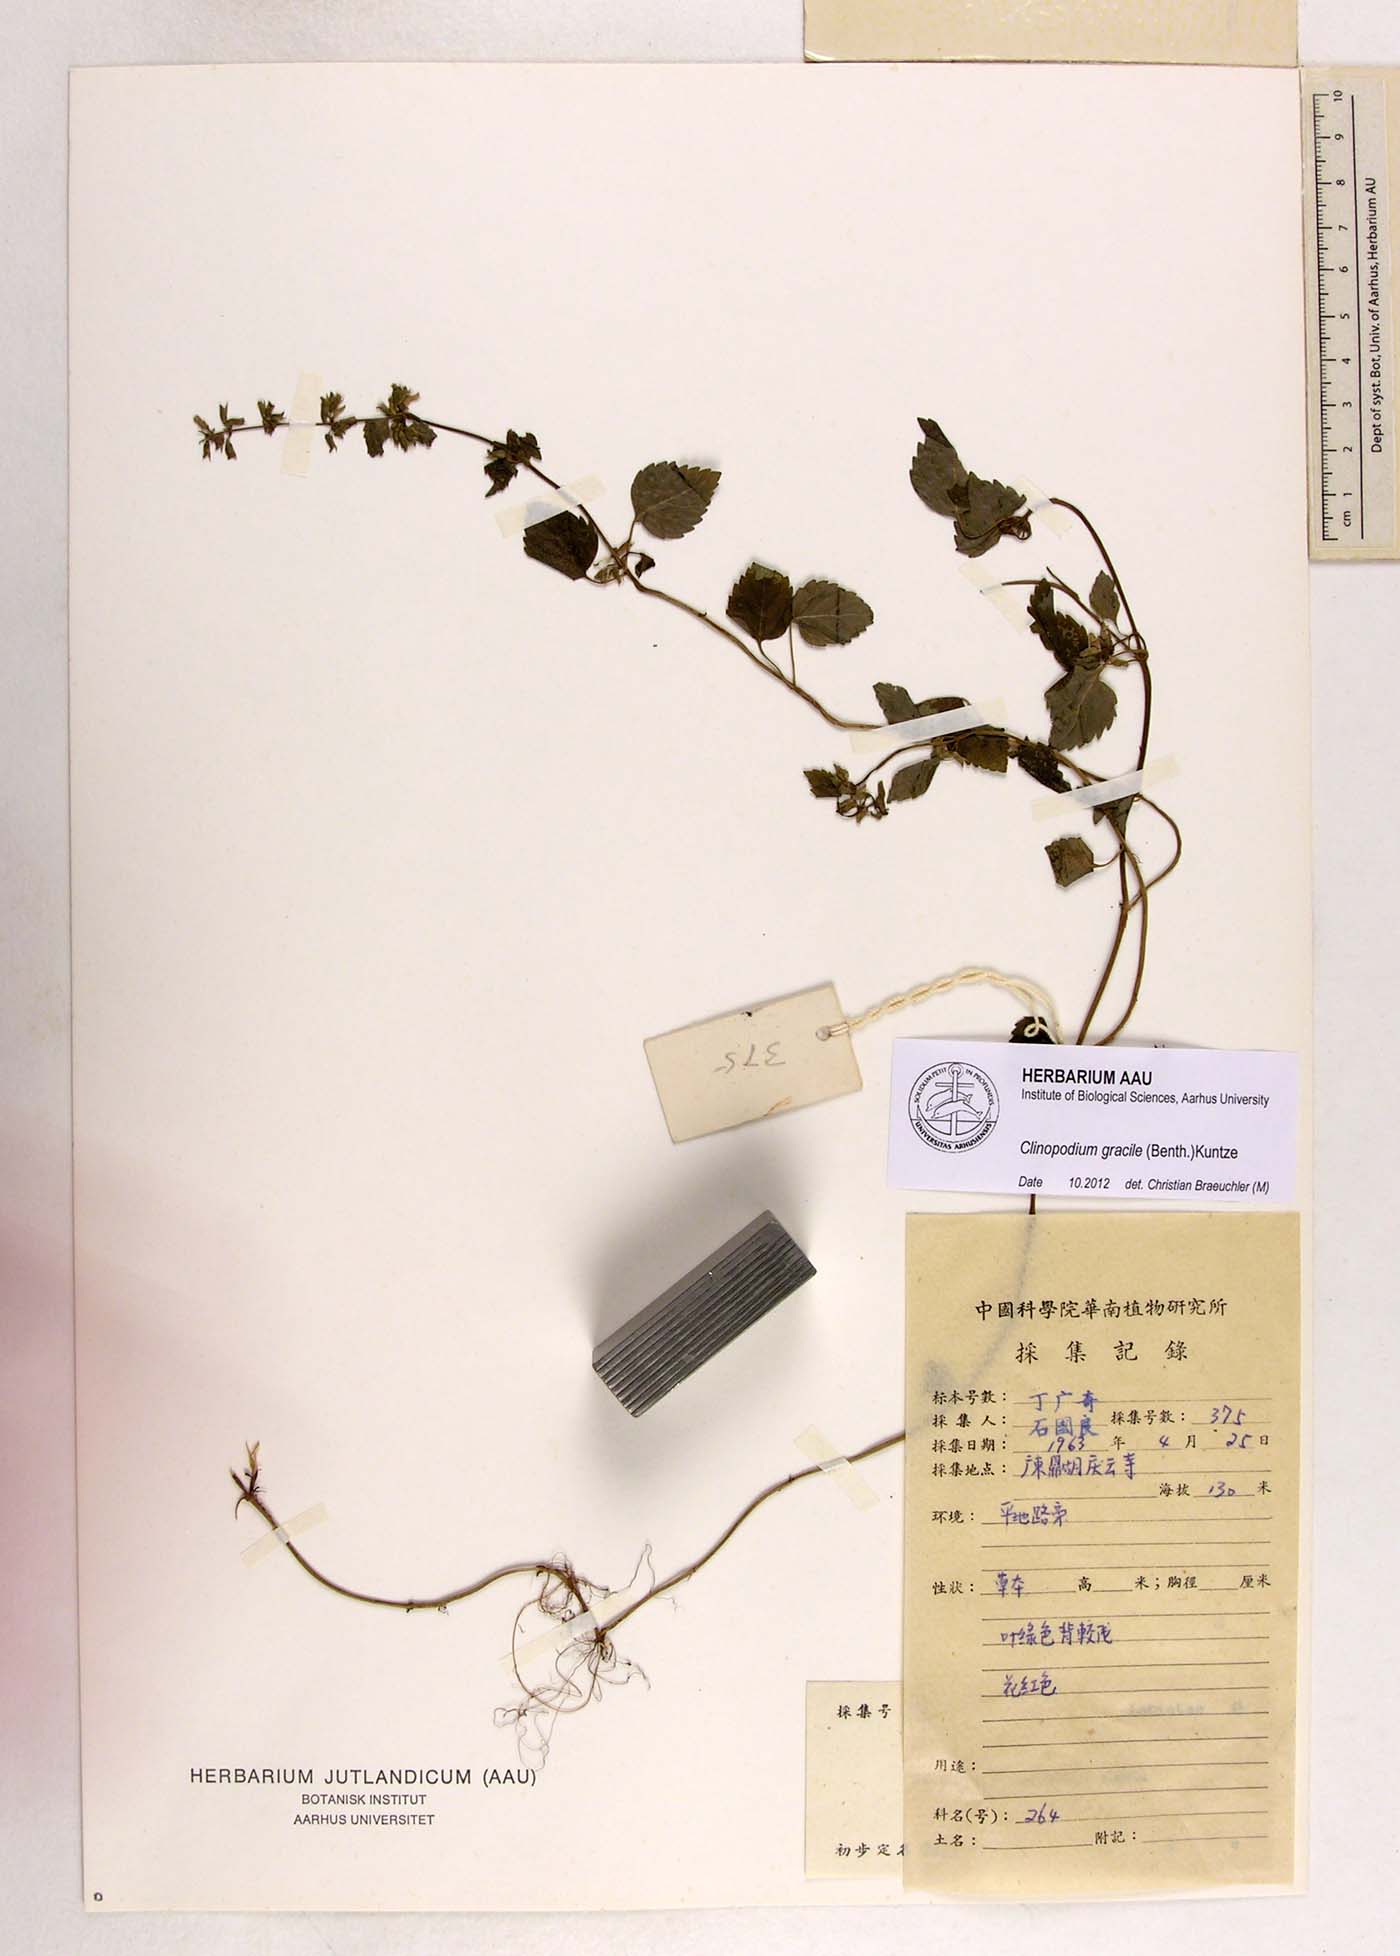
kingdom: Plantae
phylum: Tracheophyta
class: Magnoliopsida
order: Lamiales
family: Lamiaceae
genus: Clinopodium
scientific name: Clinopodium gracile
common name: Slender wild basil
